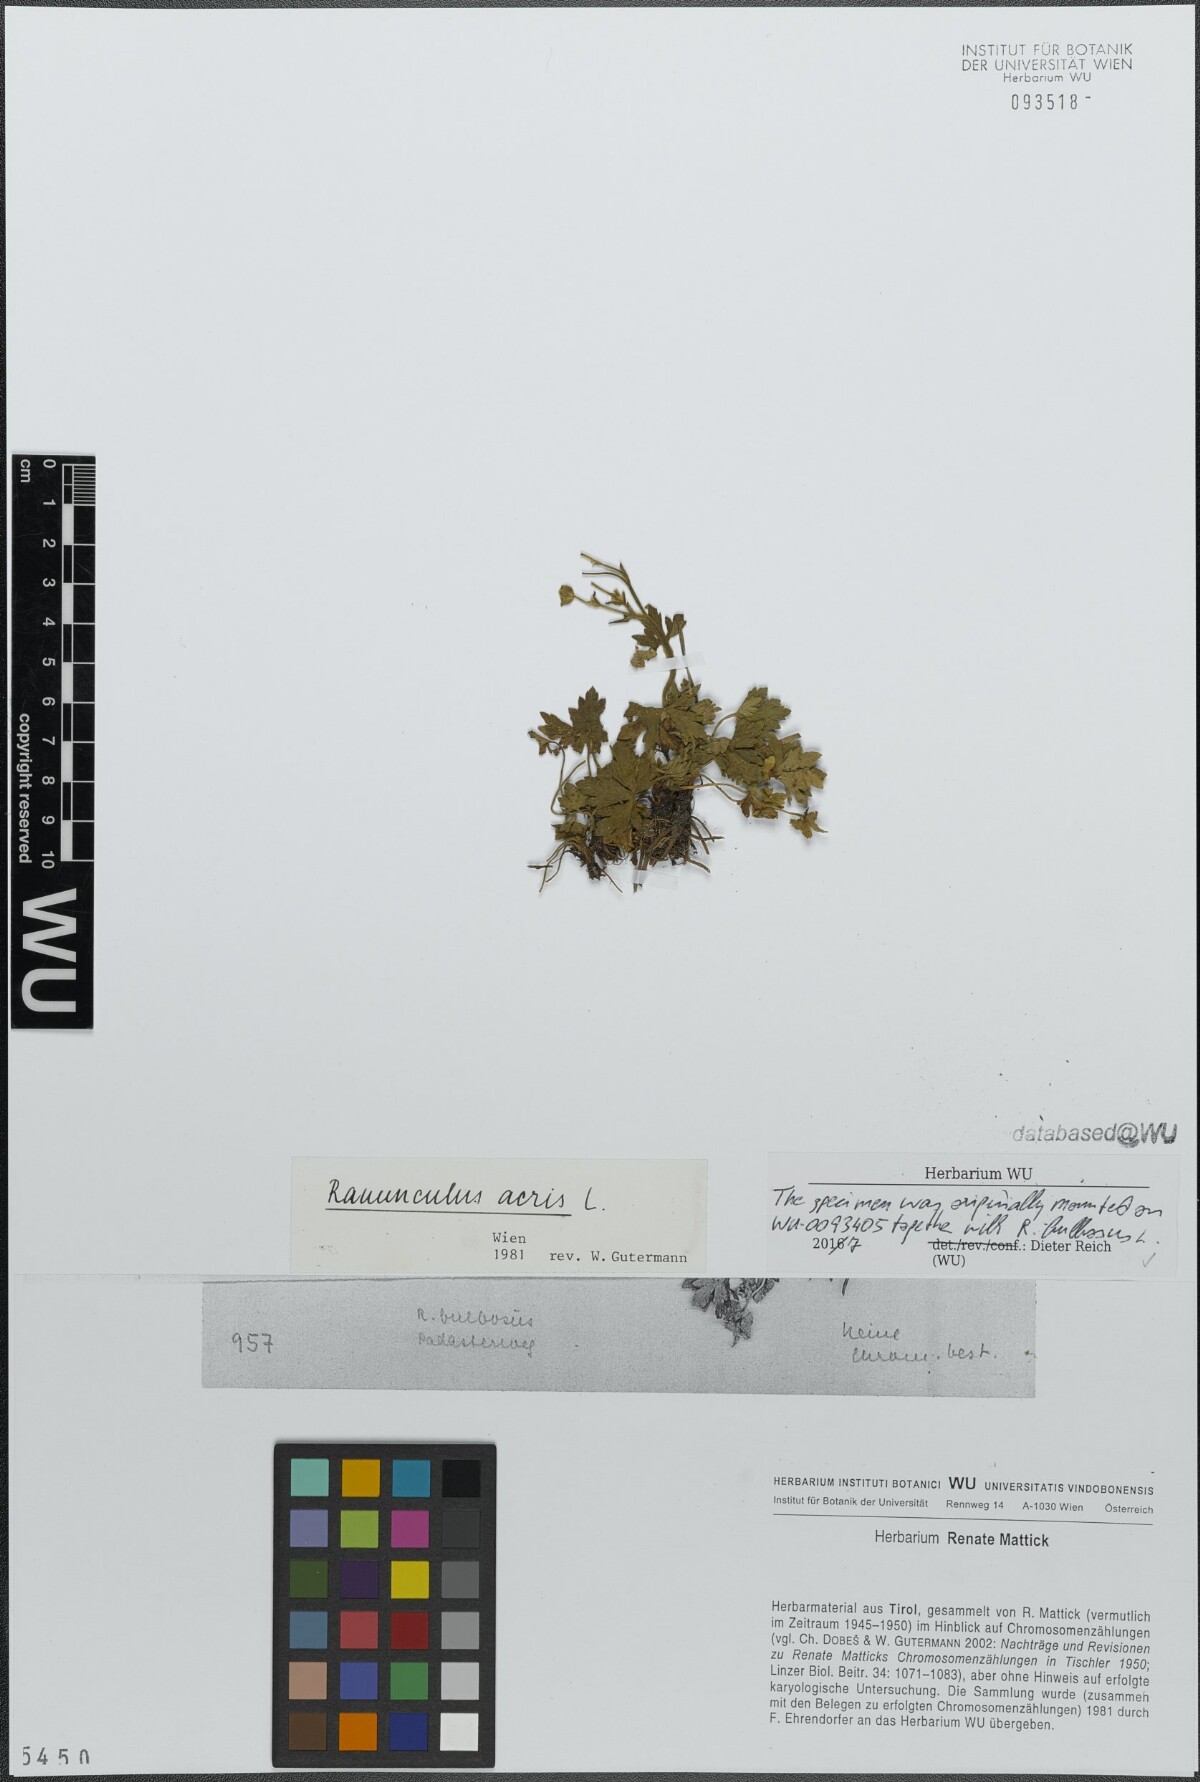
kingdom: Plantae
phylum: Tracheophyta
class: Magnoliopsida
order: Ranunculales
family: Ranunculaceae
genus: Ranunculus
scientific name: Ranunculus acris
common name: Meadow buttercup
